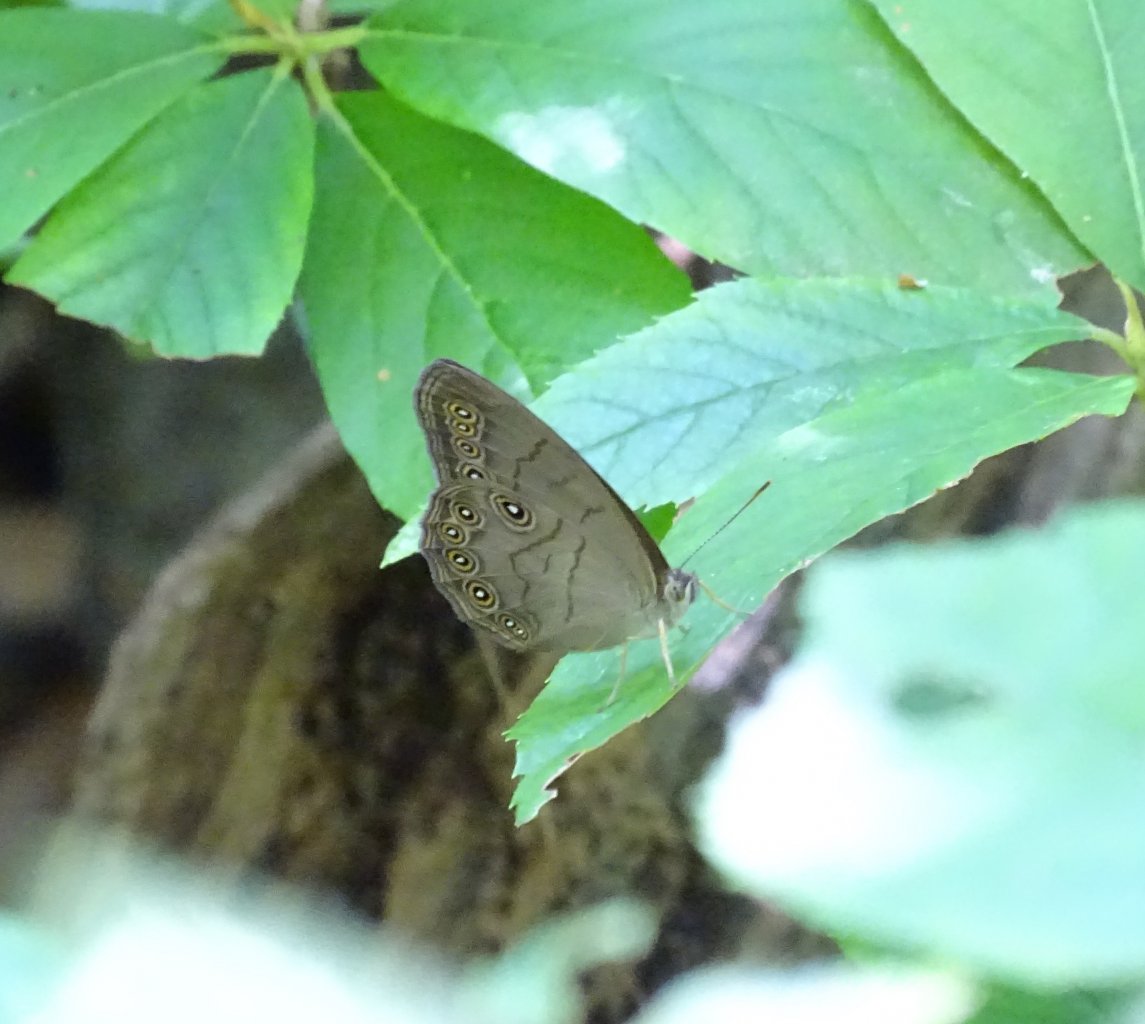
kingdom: Animalia
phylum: Arthropoda
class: Insecta
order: Lepidoptera
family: Nymphalidae
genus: Lethe
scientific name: Lethe eurydice
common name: Appalachian Eyed Brown
